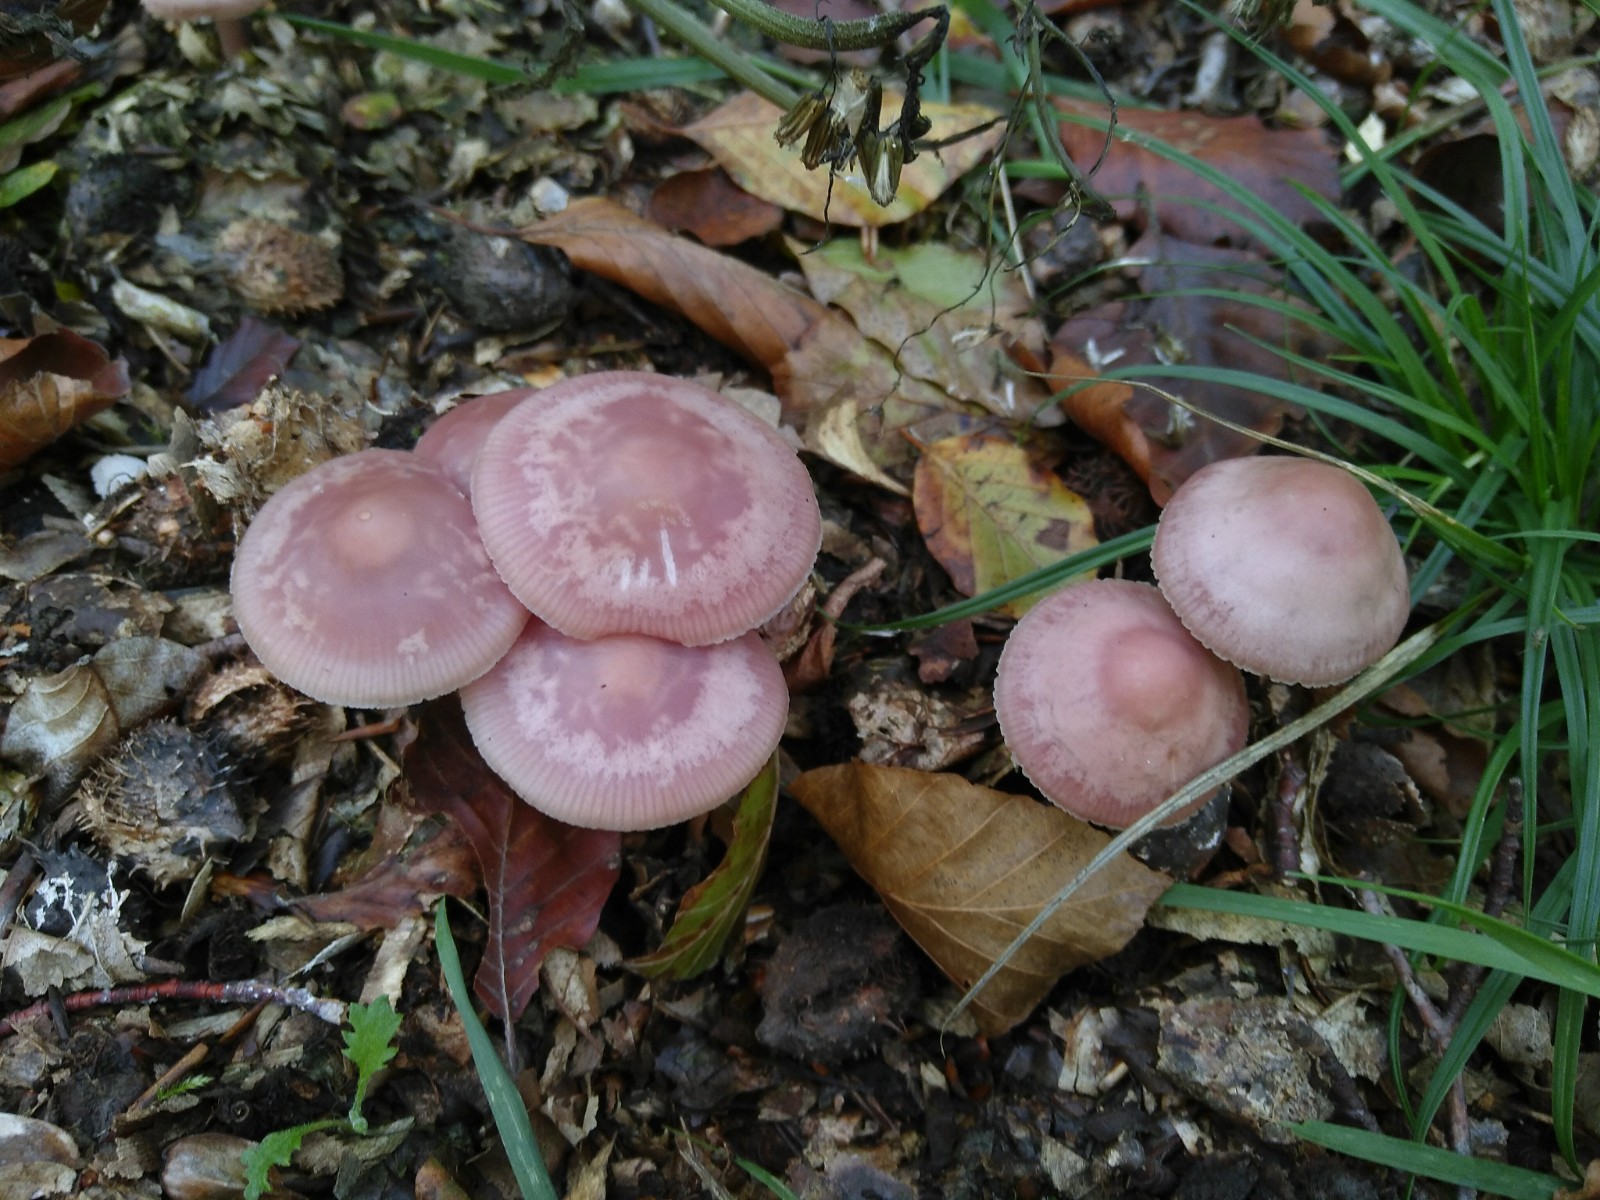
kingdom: Fungi
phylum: Basidiomycota
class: Agaricomycetes
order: Agaricales
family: Mycenaceae
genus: Mycena
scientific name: Mycena rosea
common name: rosa huesvamp
